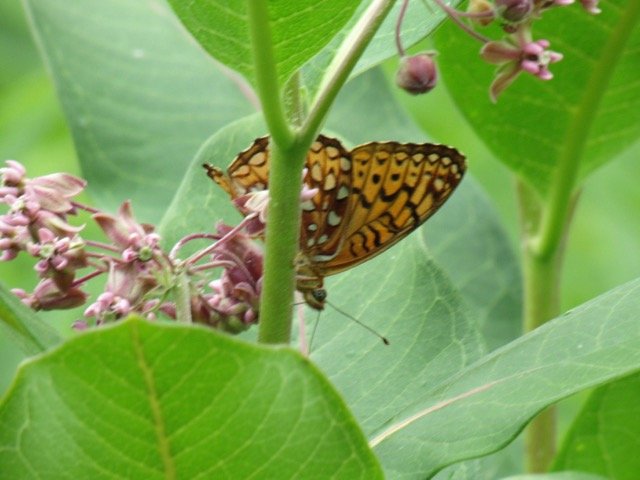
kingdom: Animalia
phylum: Arthropoda
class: Insecta
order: Lepidoptera
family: Nymphalidae
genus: Speyeria
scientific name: Speyeria atlantis
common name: Atlantis Fritillary
